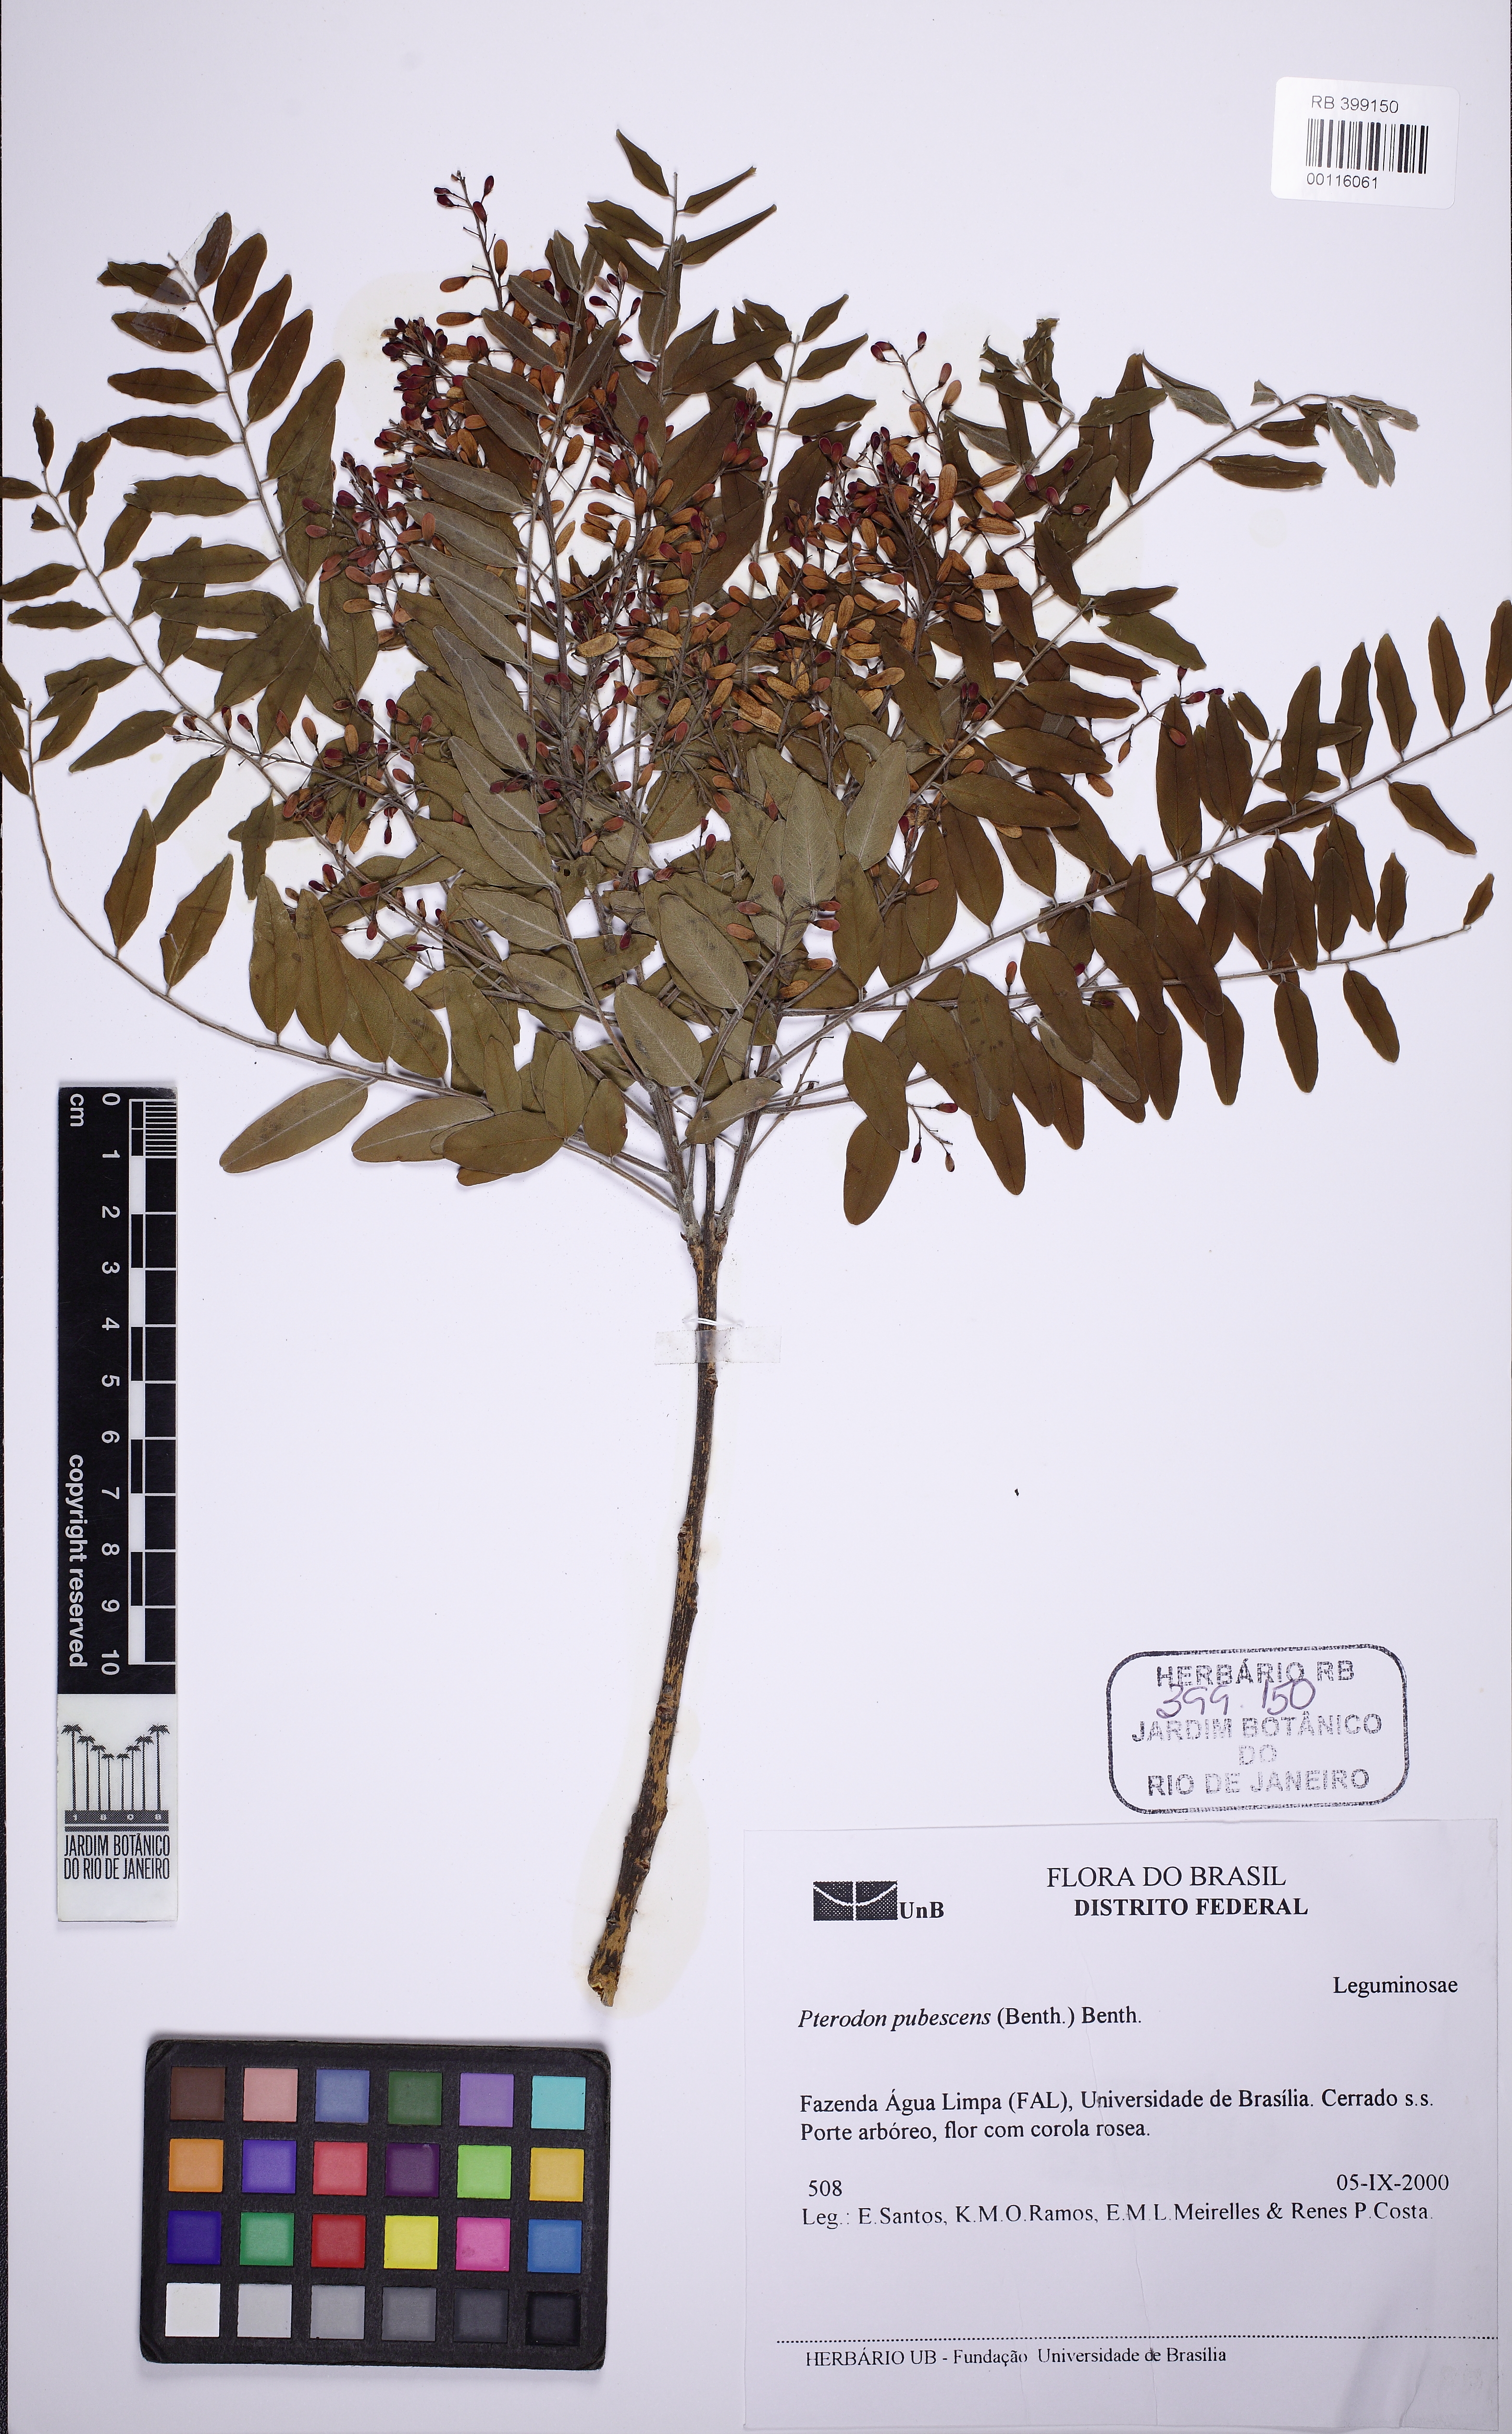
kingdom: Plantae
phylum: Tracheophyta
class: Magnoliopsida
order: Fabales
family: Fabaceae
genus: Pterodon
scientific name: Pterodon emarginatus
